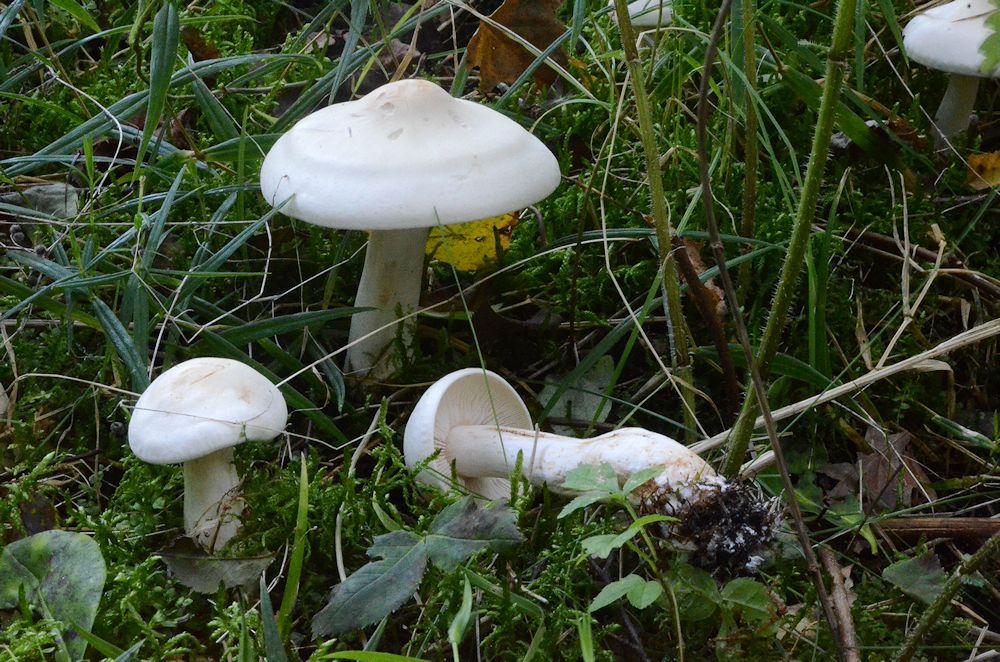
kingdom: Fungi
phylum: Basidiomycota
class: Agaricomycetes
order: Agaricales
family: Tricholomataceae
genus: Tricholoma
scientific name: Tricholoma stiparophyllum
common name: hvid ridderhat
